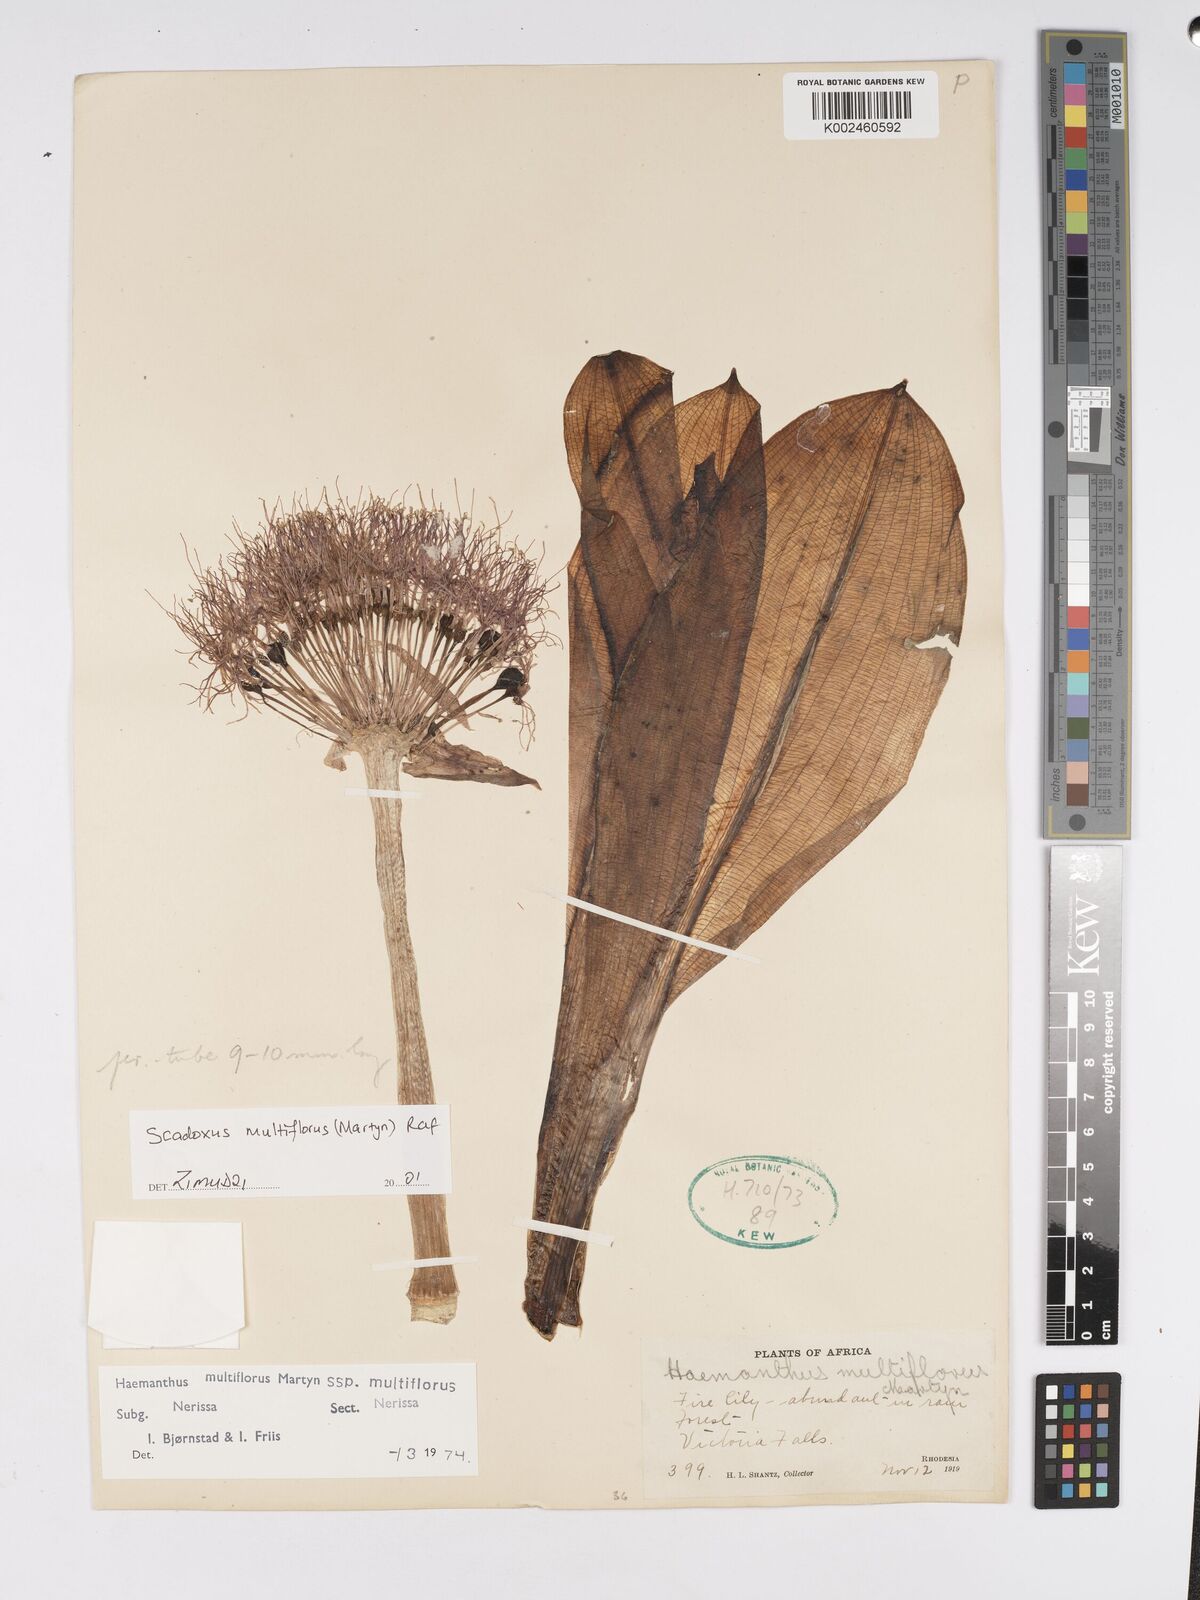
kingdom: Plantae
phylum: Tracheophyta
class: Liliopsida
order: Asparagales
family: Amaryllidaceae
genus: Scadoxus
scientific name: Scadoxus multiflorus
